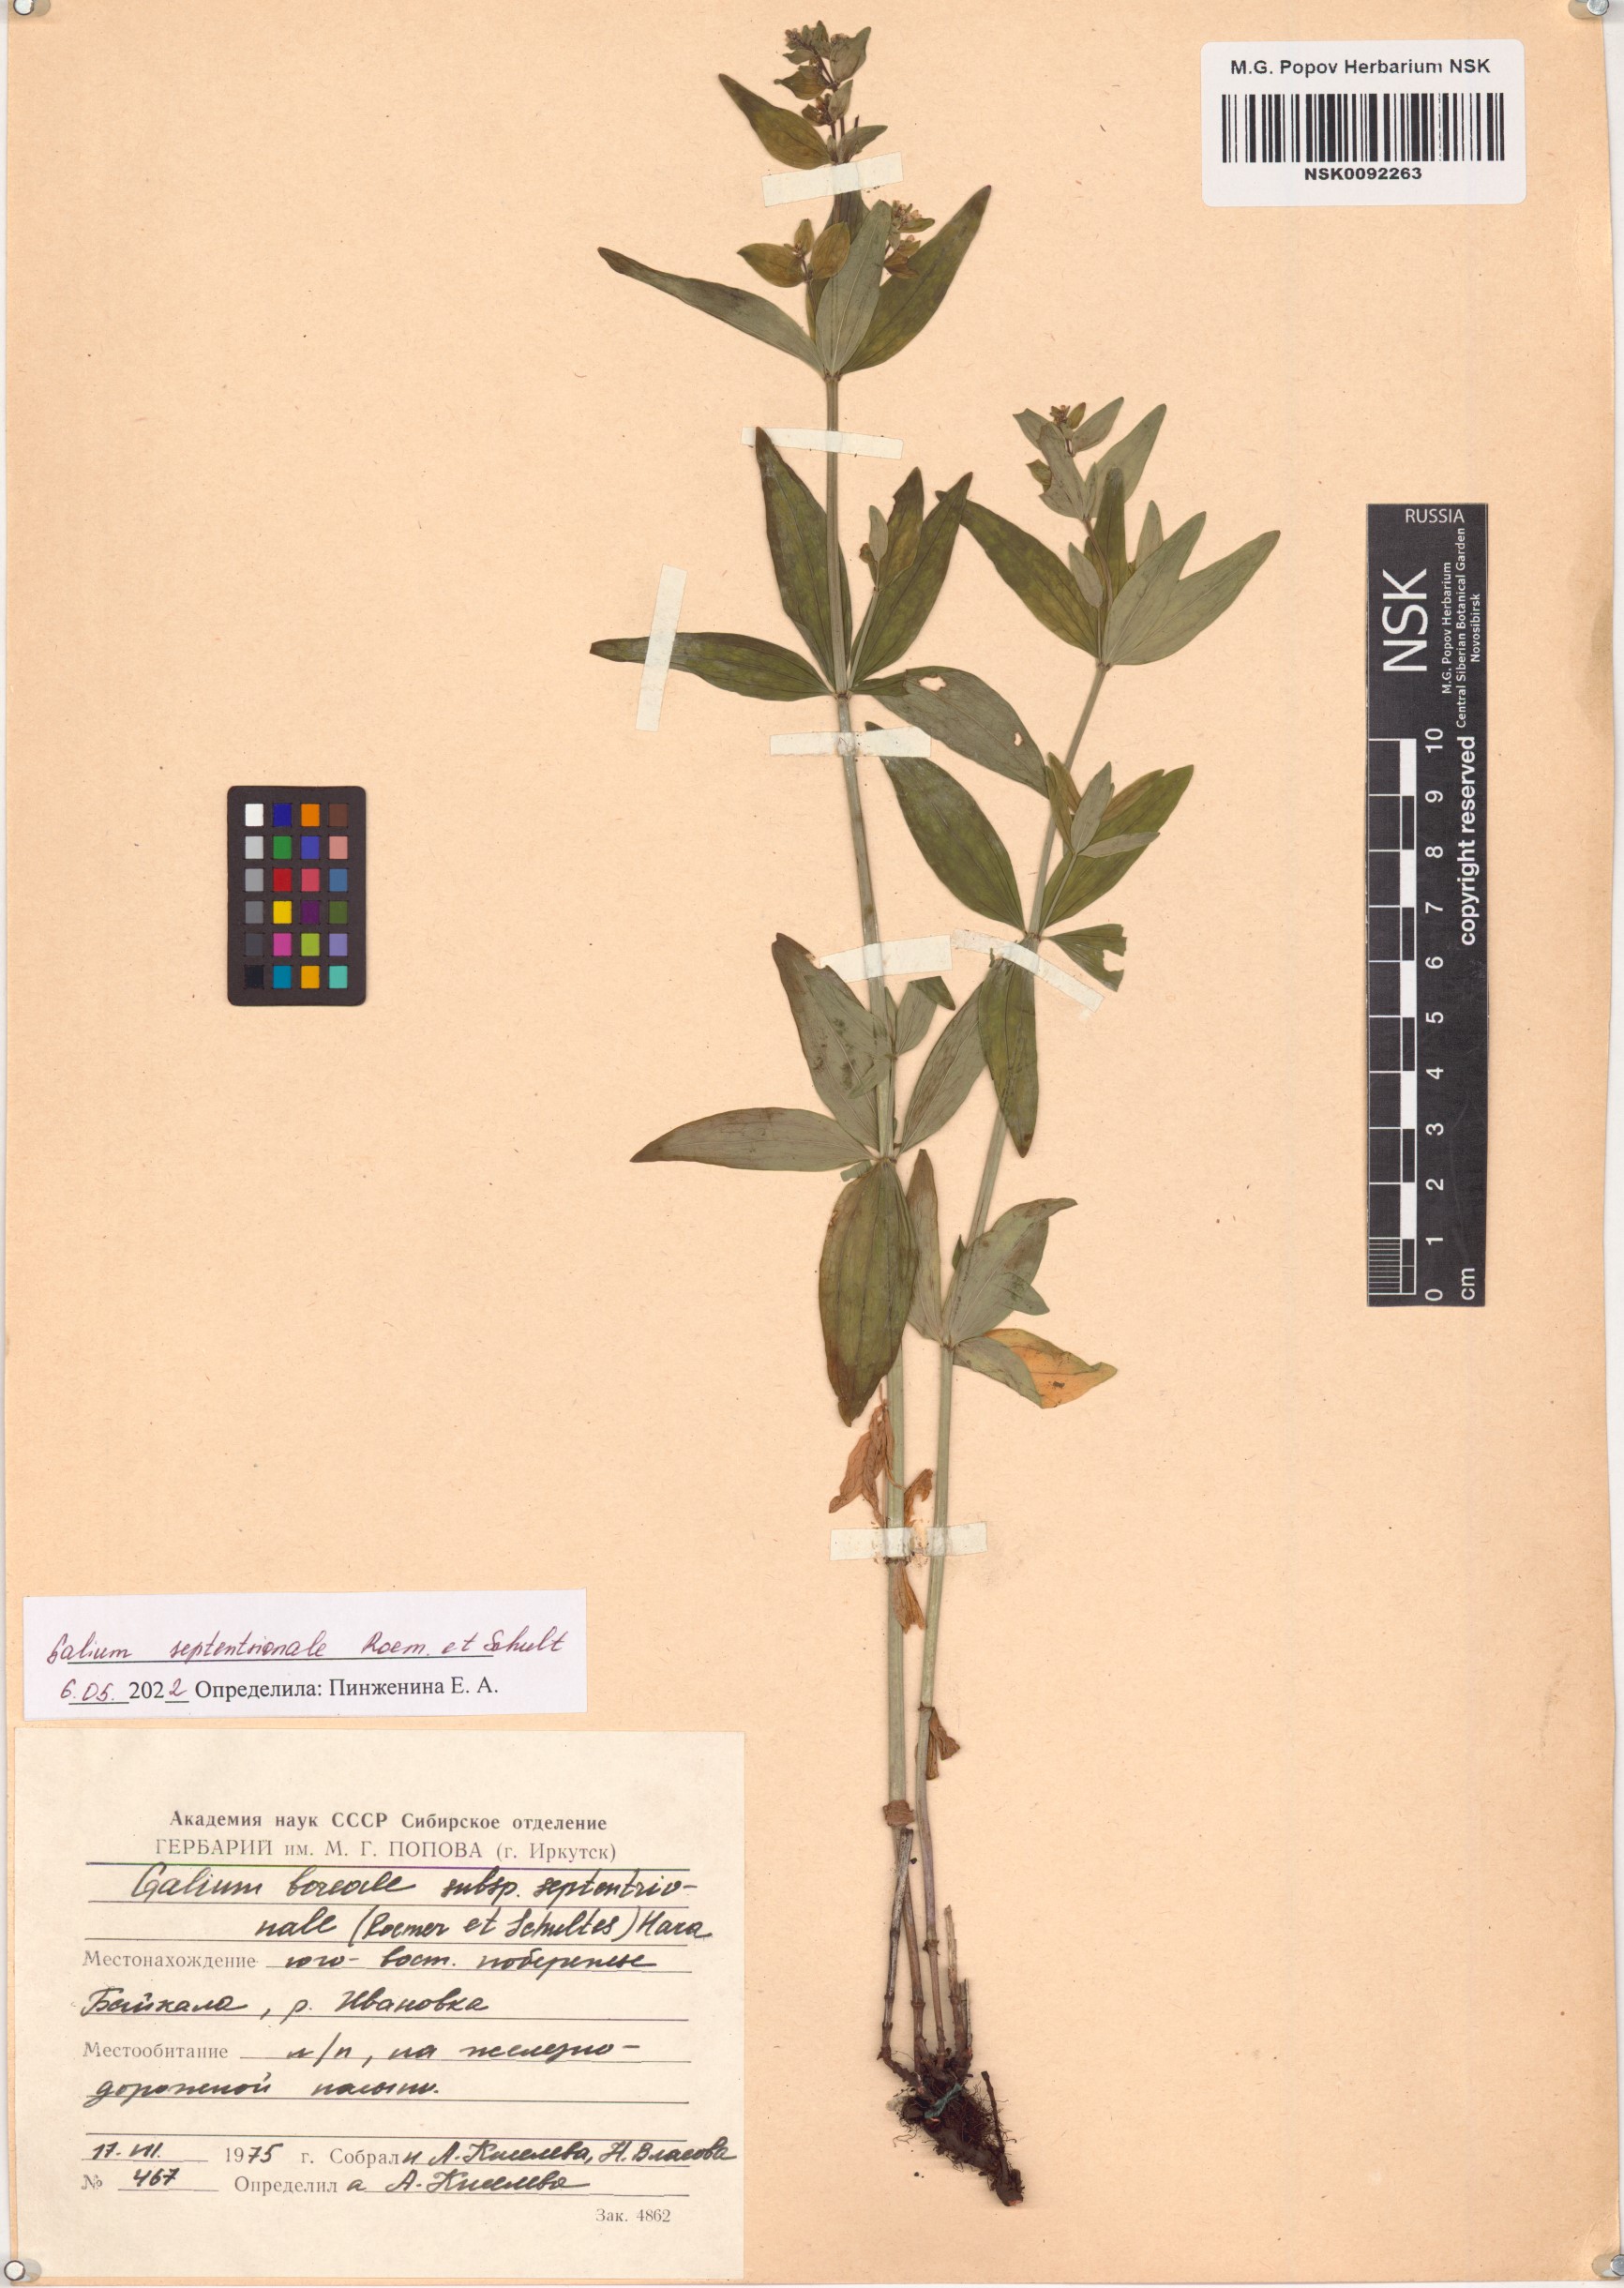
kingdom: Plantae
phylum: Tracheophyta
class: Magnoliopsida
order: Gentianales
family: Rubiaceae
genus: Galium
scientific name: Galium boreale
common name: Northern bedstraw
